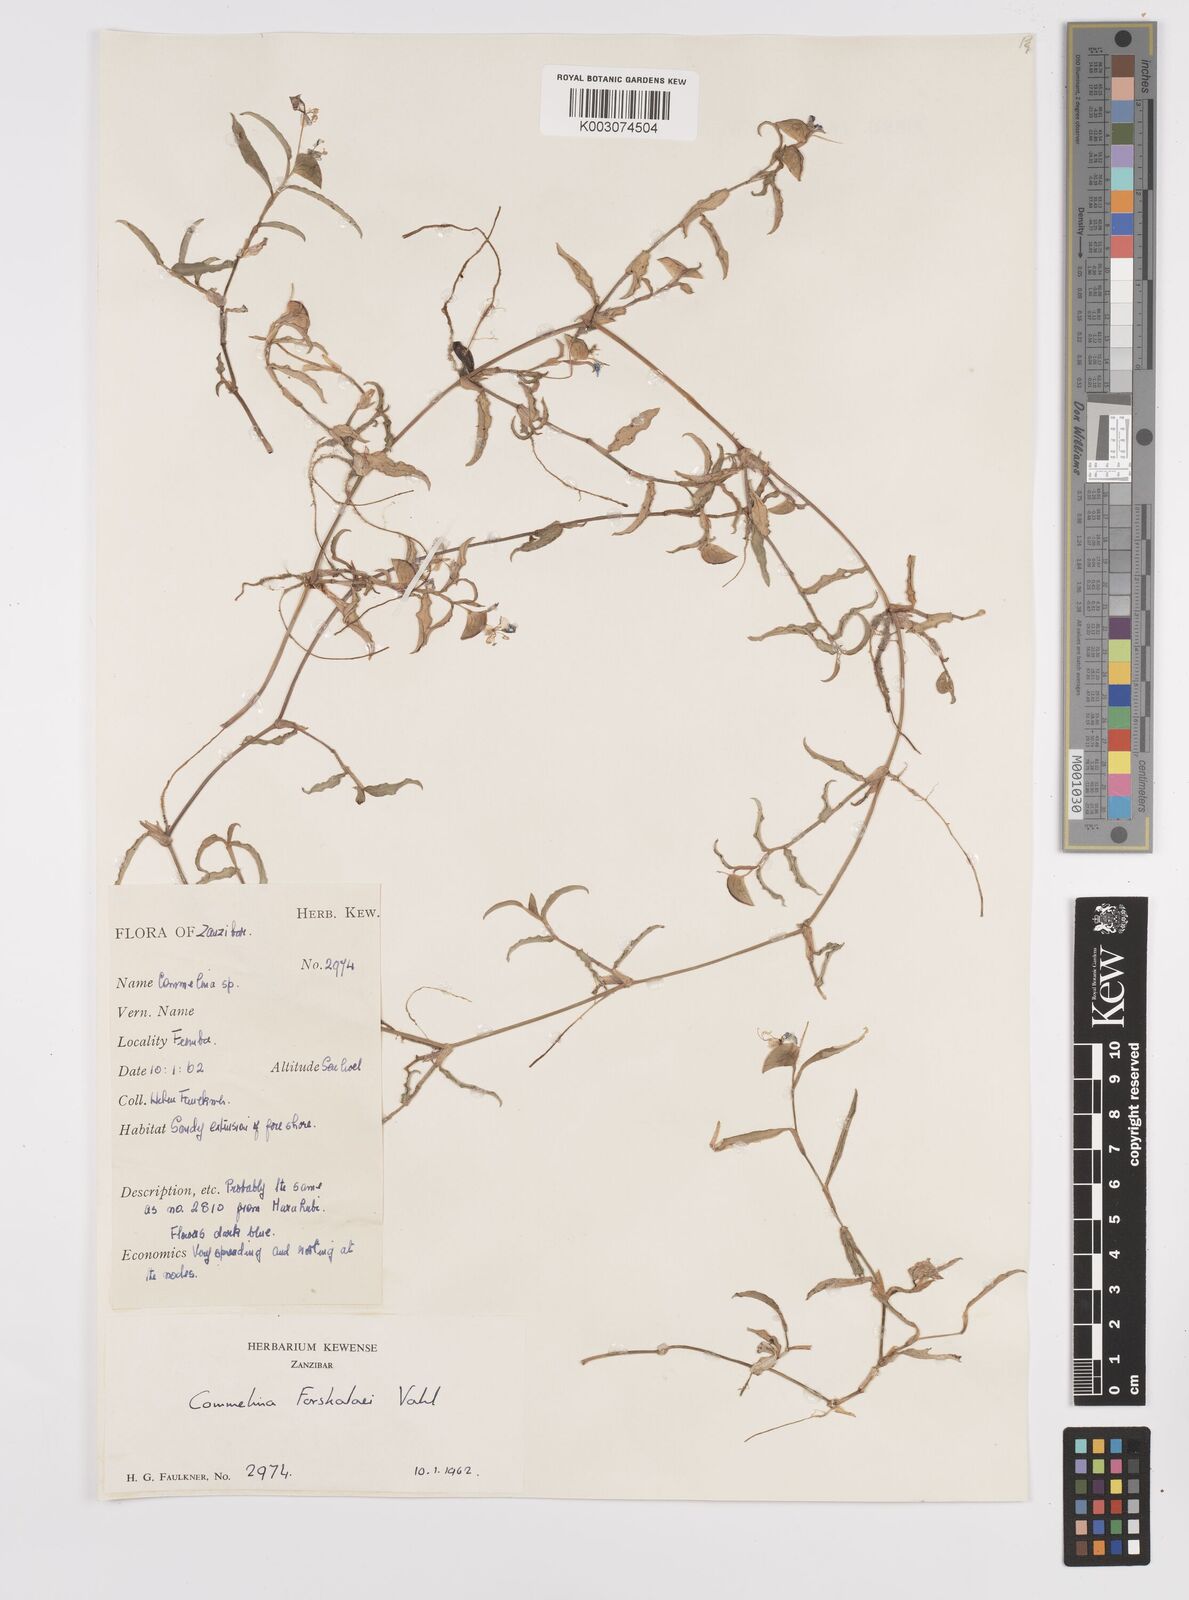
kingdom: Plantae
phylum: Tracheophyta
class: Liliopsida
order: Commelinales
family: Commelinaceae
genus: Commelina
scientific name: Commelina forskaolii
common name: Rat's ear
